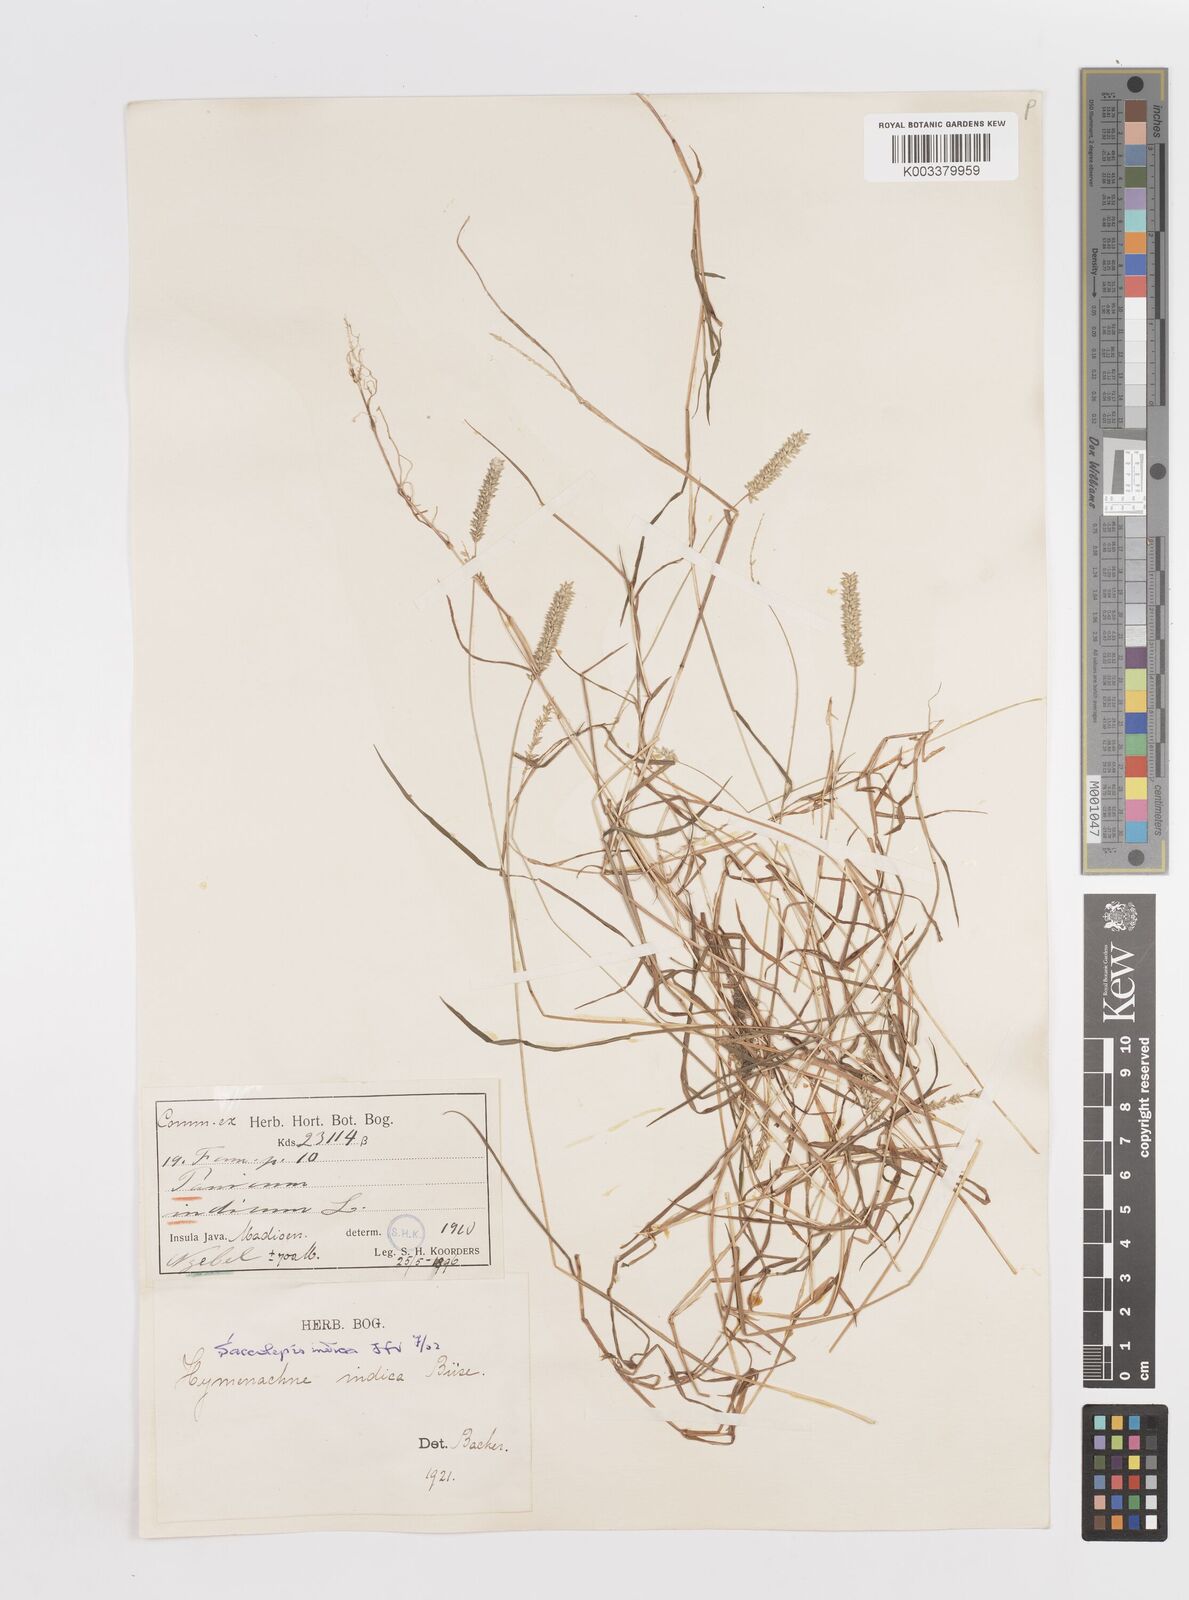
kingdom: Plantae
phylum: Tracheophyta
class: Liliopsida
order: Poales
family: Poaceae
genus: Sacciolepis
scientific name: Sacciolepis indica
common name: Glenwoodgrass
